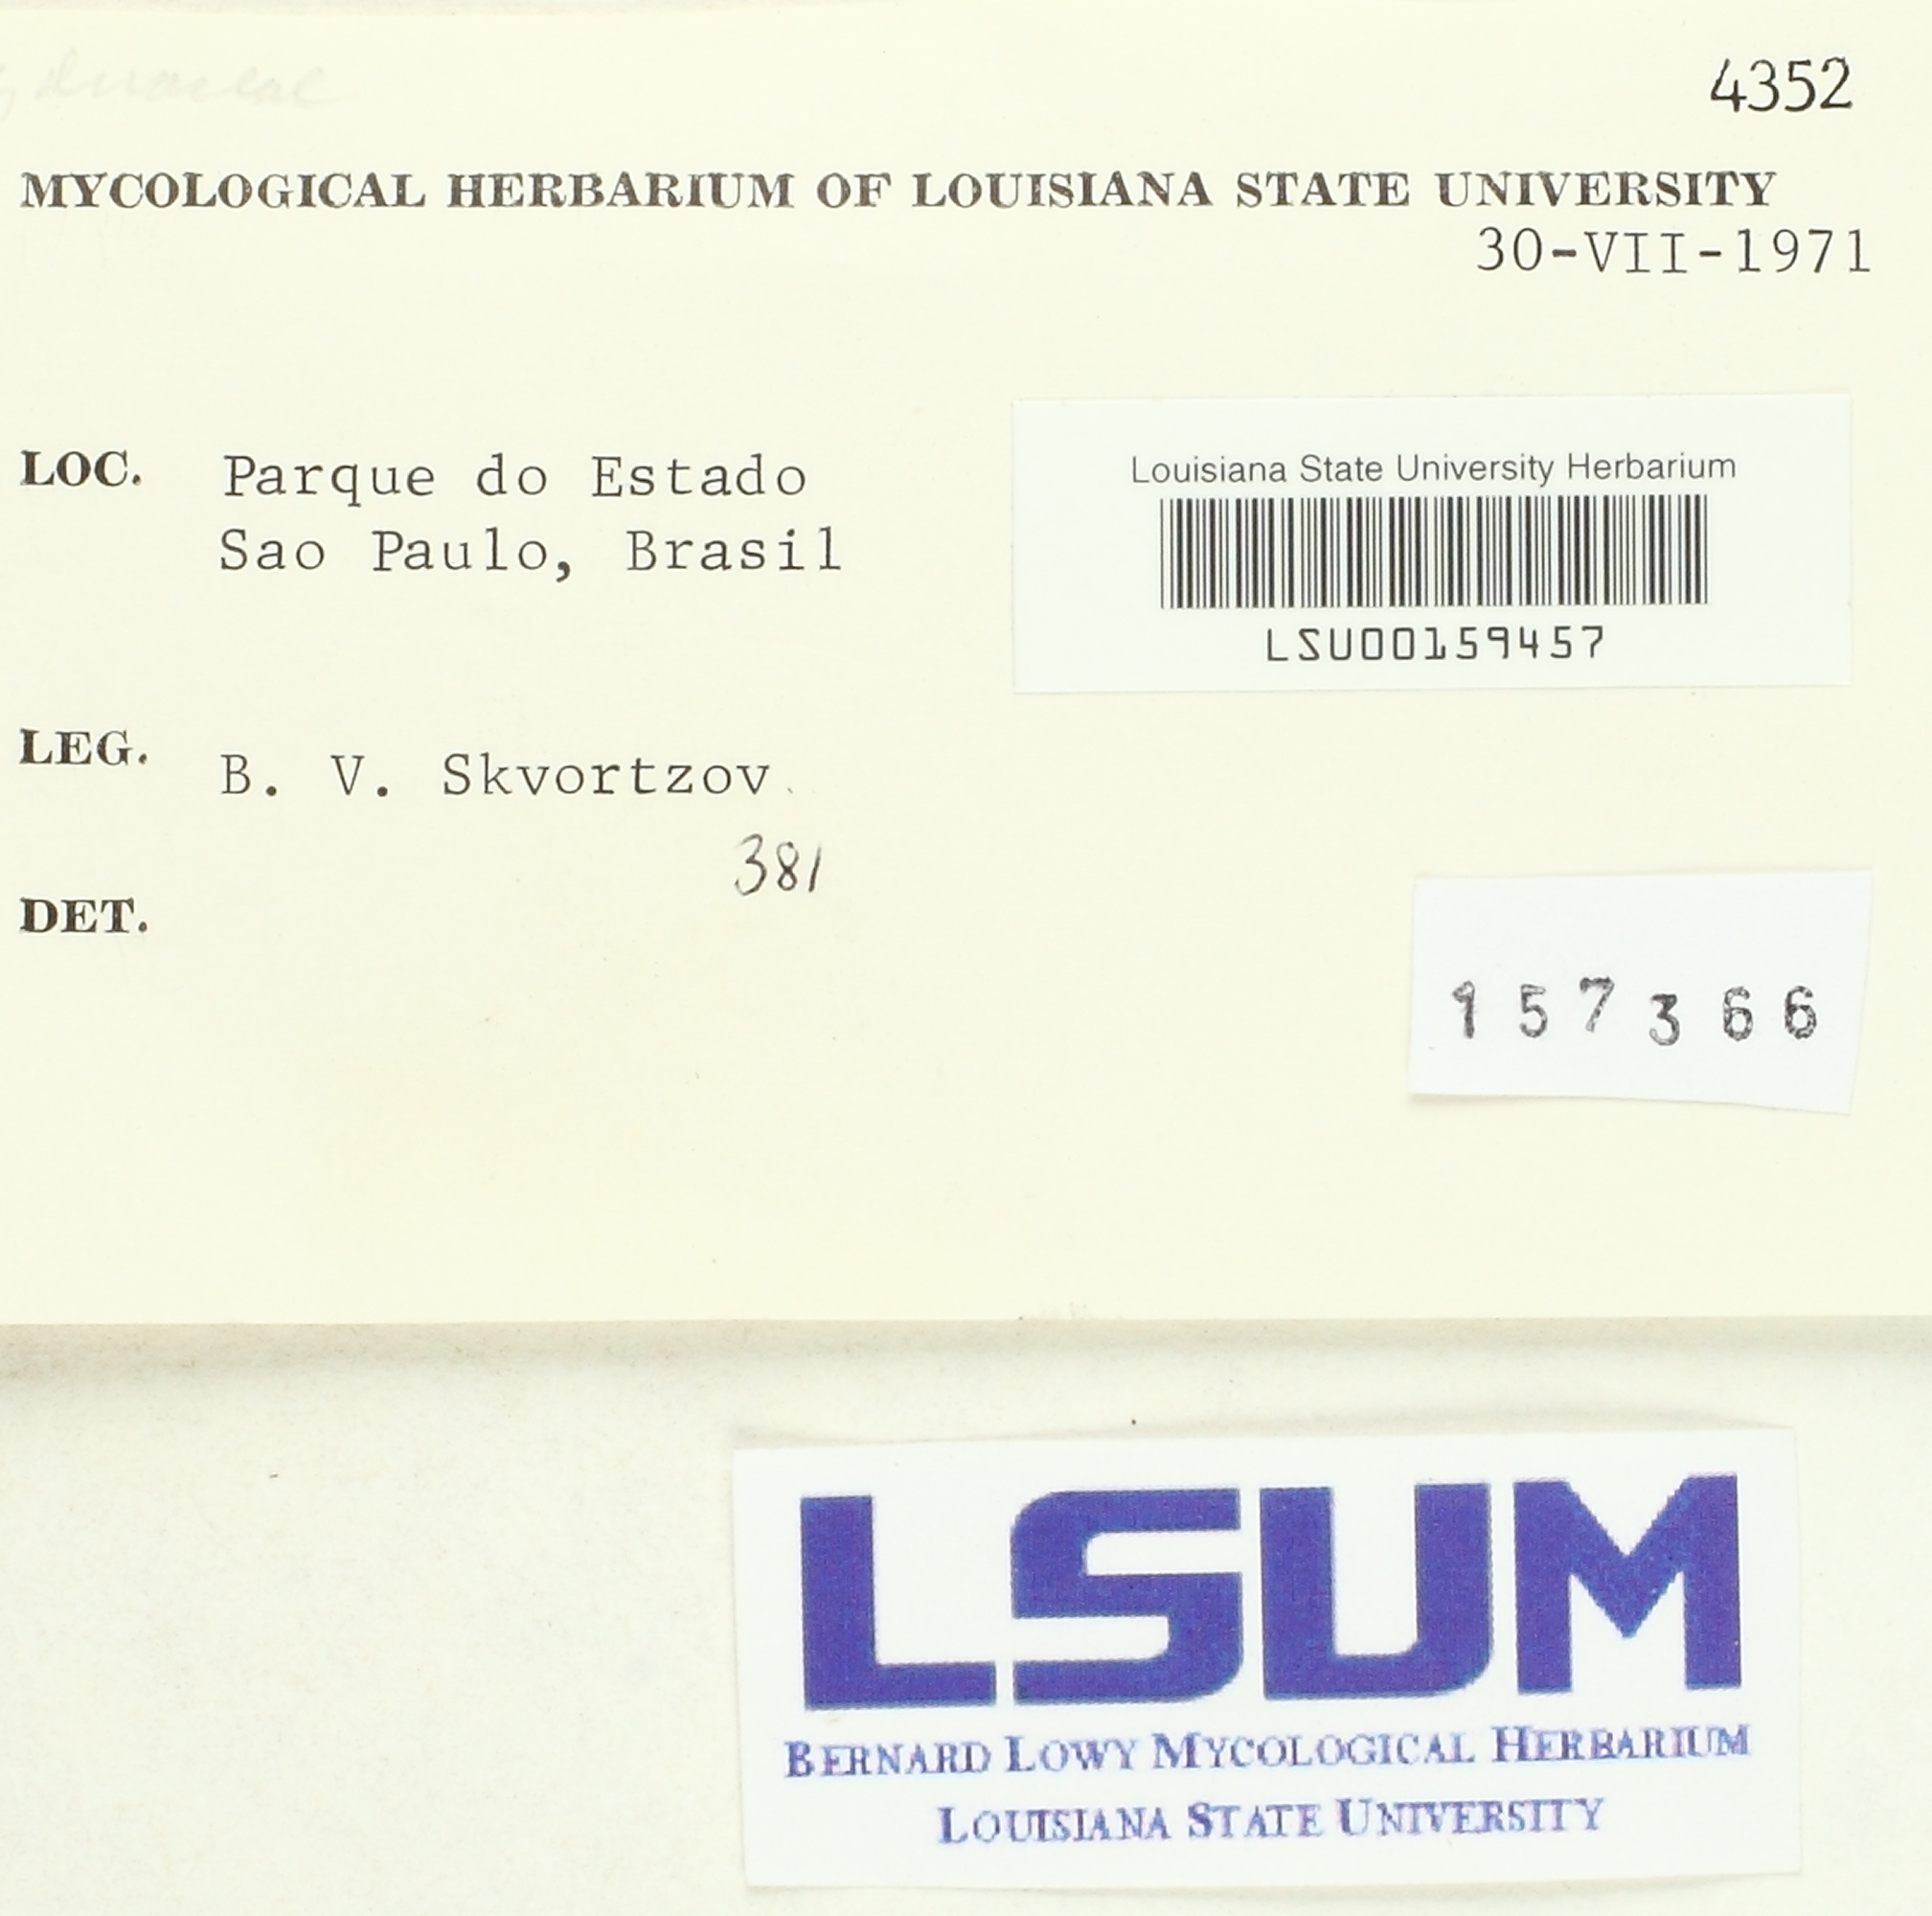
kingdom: Fungi
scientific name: Fungi
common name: Fungi
